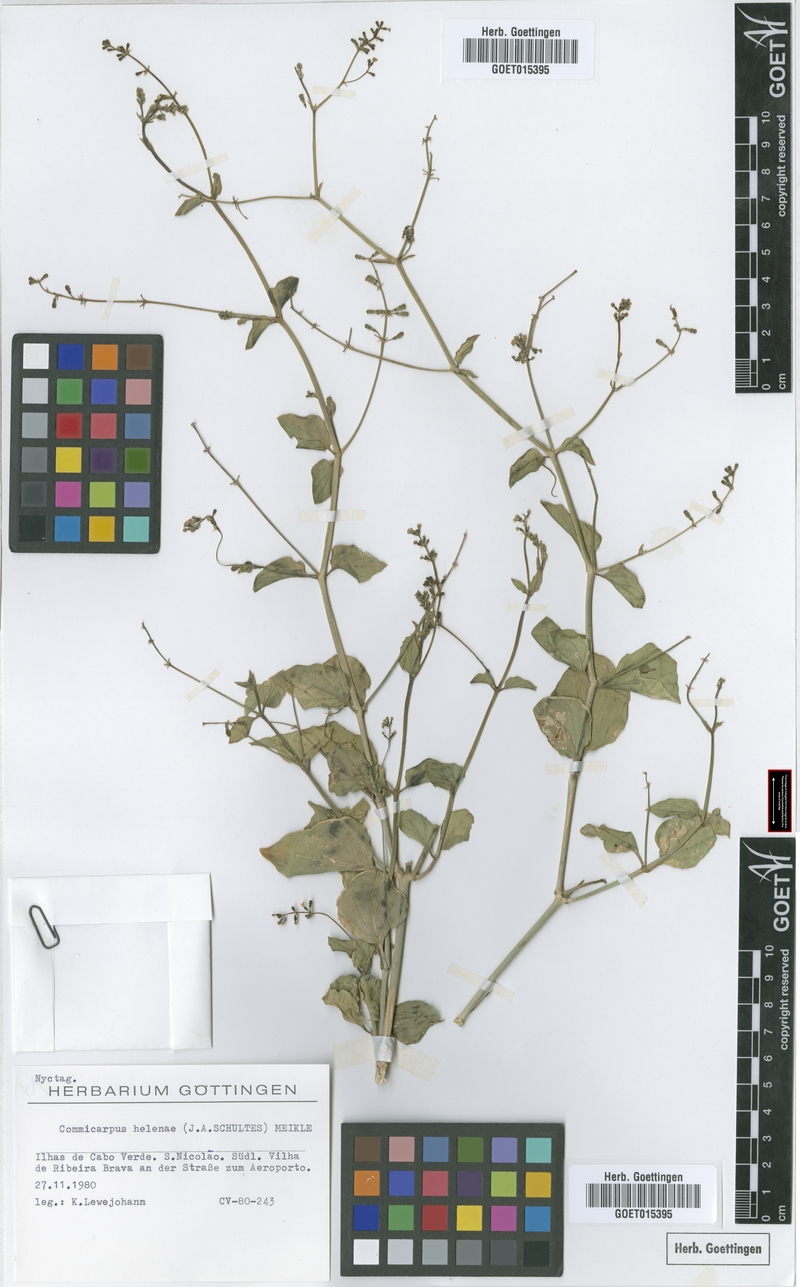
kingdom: Plantae
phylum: Tracheophyta
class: Magnoliopsida
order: Caryophyllales
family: Nyctaginaceae
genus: Commicarpus
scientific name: Commicarpus helenae
